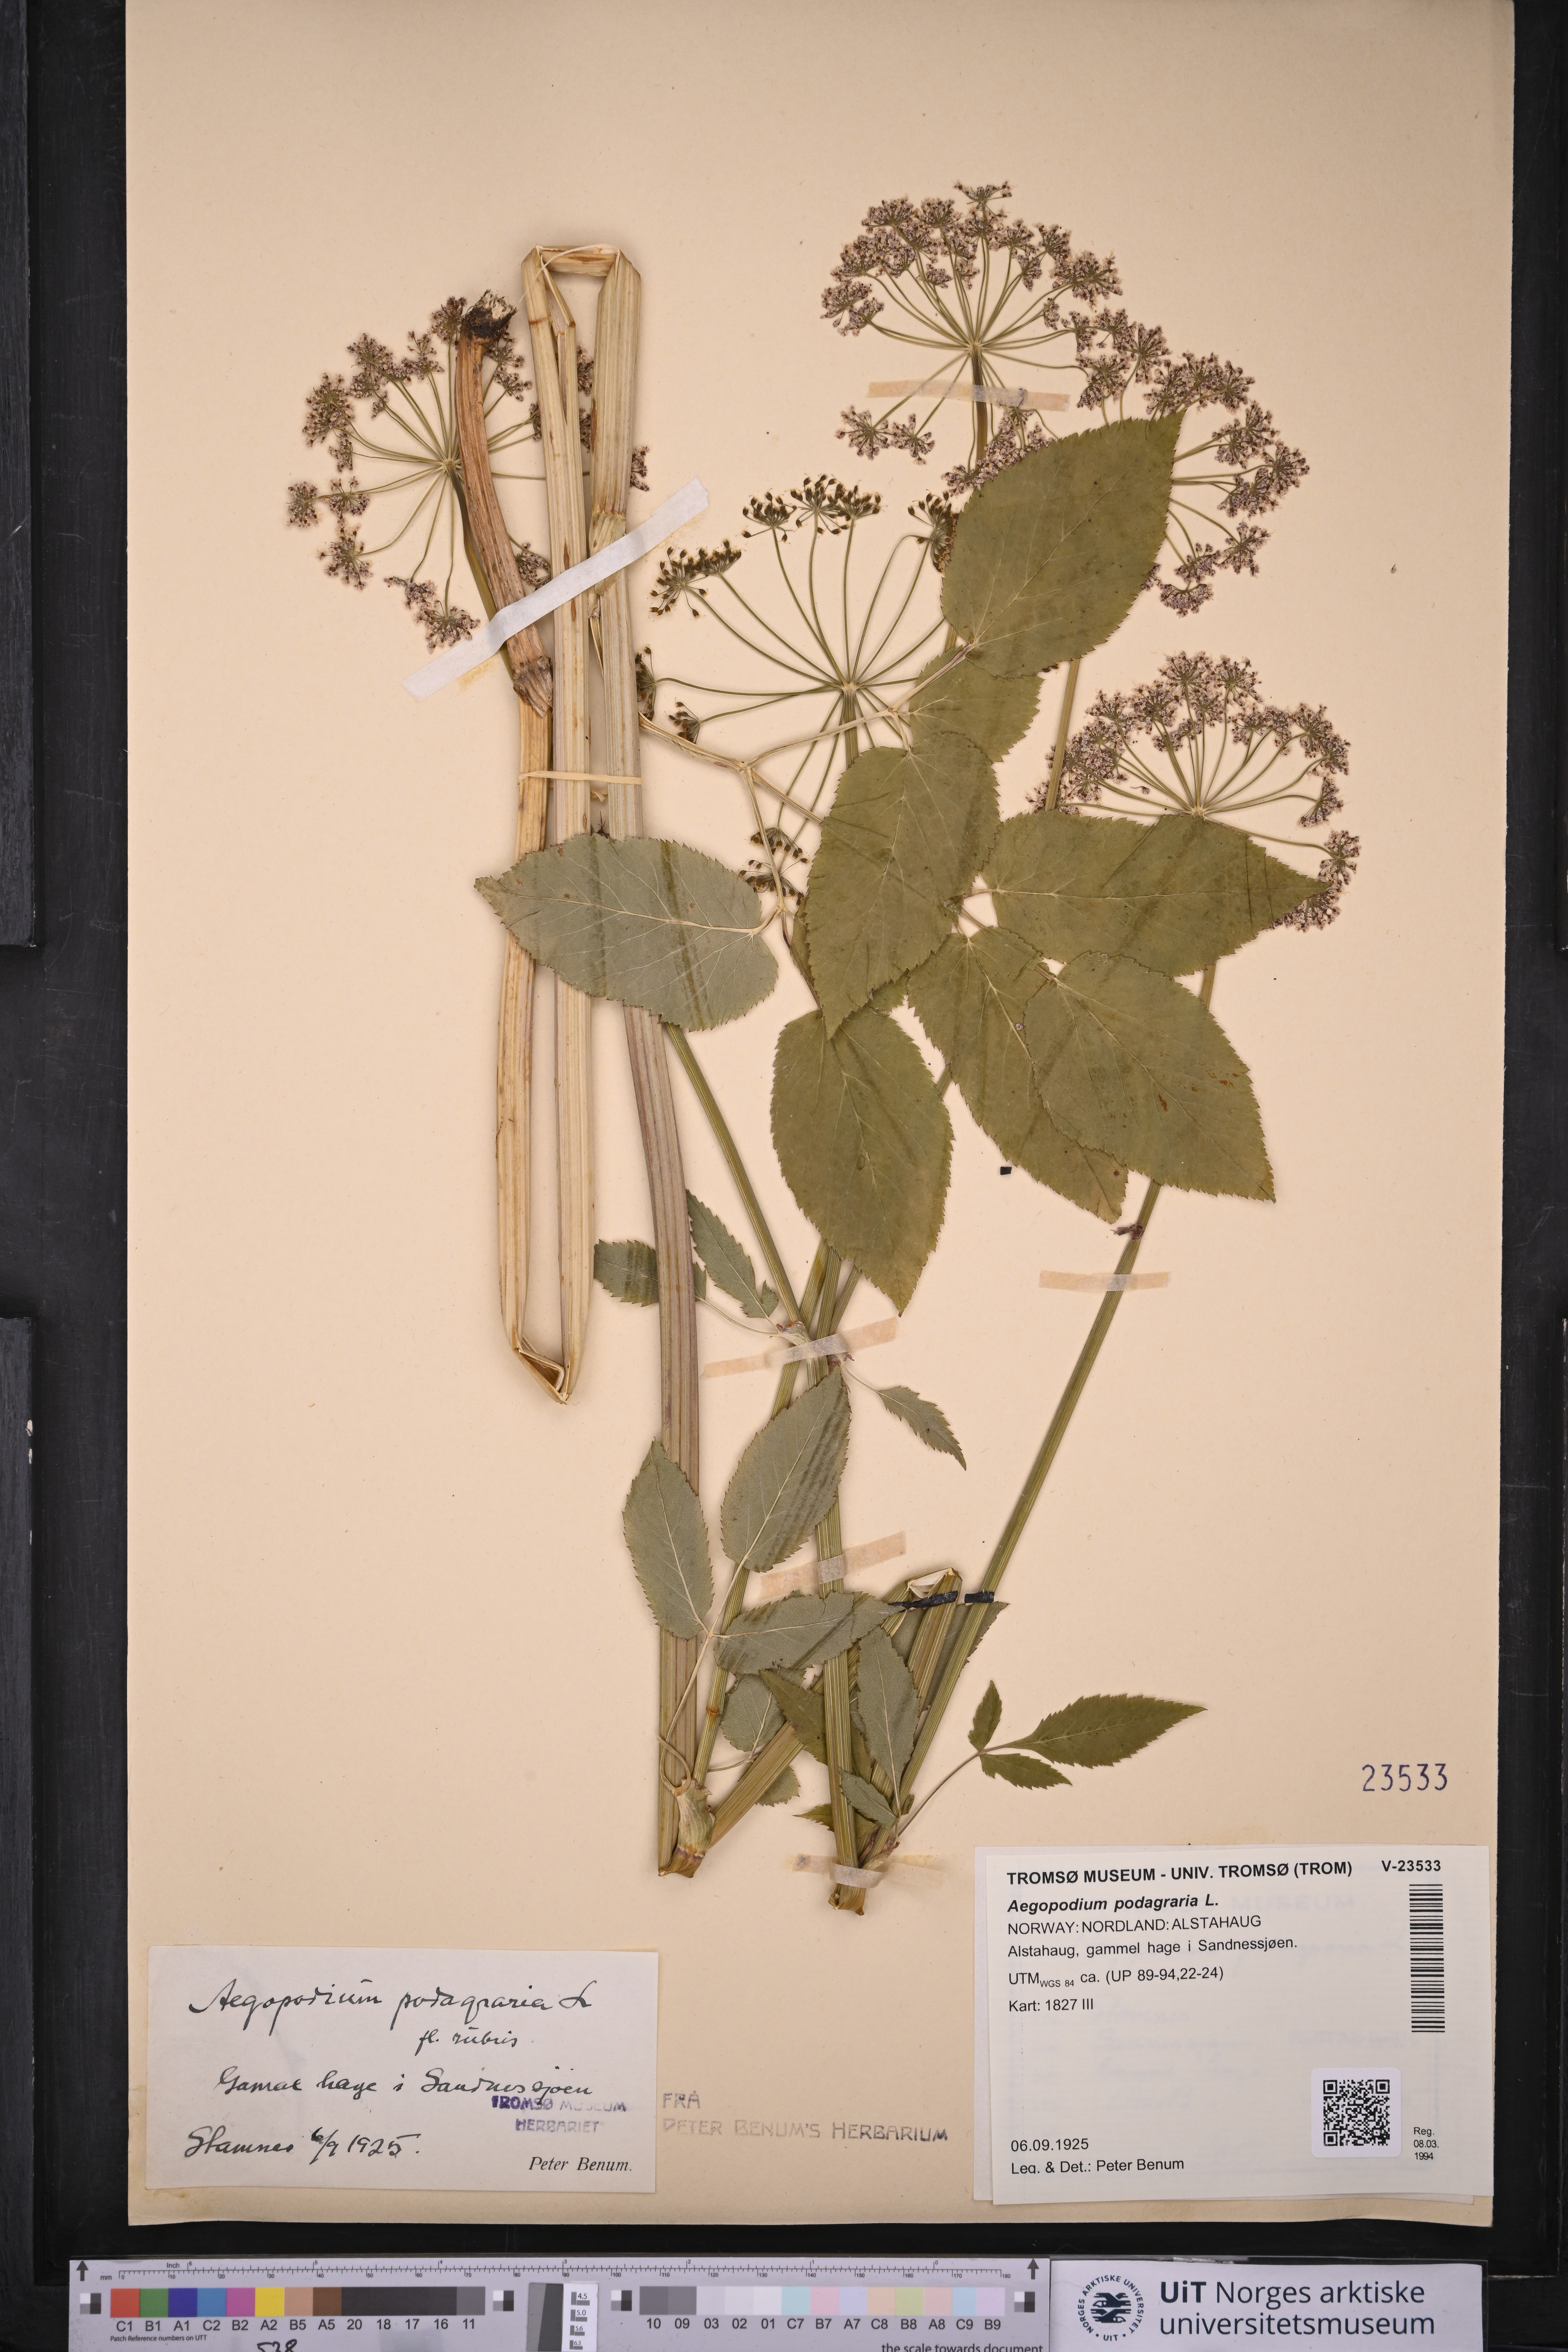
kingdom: Plantae
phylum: Tracheophyta
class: Magnoliopsida
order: Apiales
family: Apiaceae
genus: Aegopodium
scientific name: Aegopodium podagraria
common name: Ground-elder
